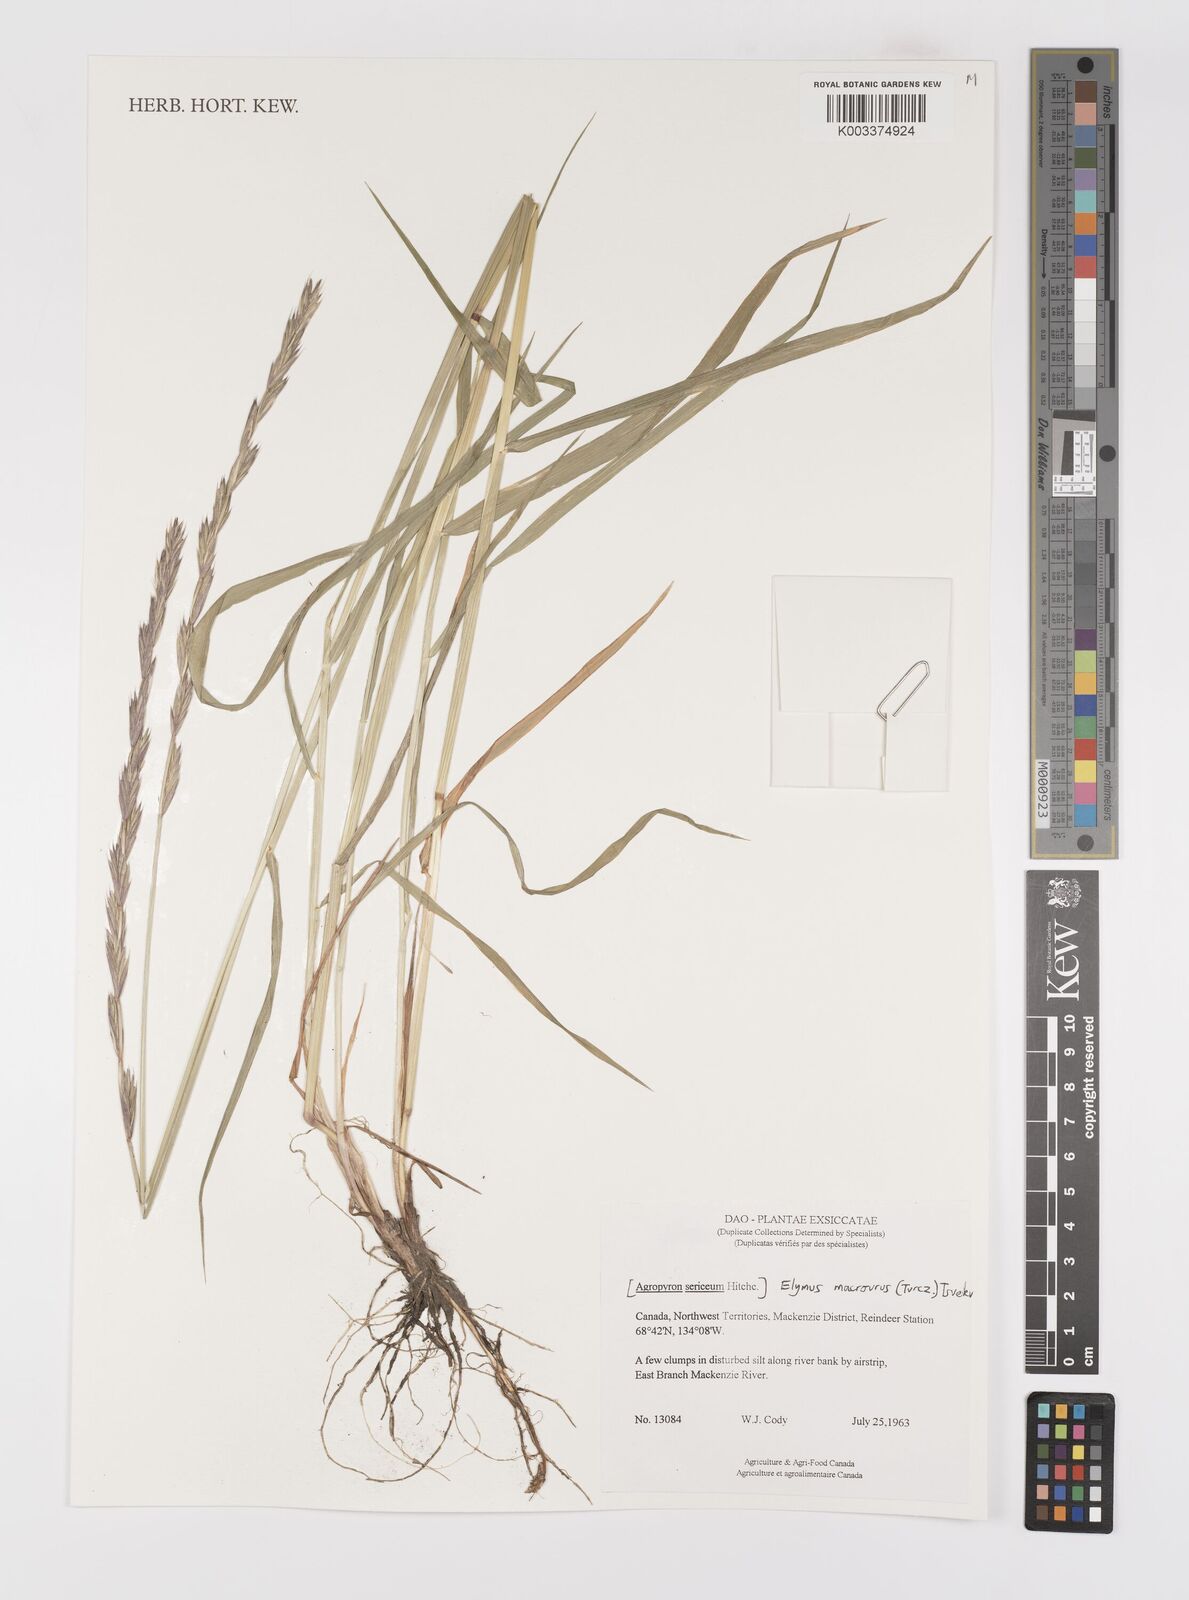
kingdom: Plantae
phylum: Tracheophyta
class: Liliopsida
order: Poales
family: Poaceae
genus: Elymus
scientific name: Elymus macrourus
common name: Northern wheatgrass
